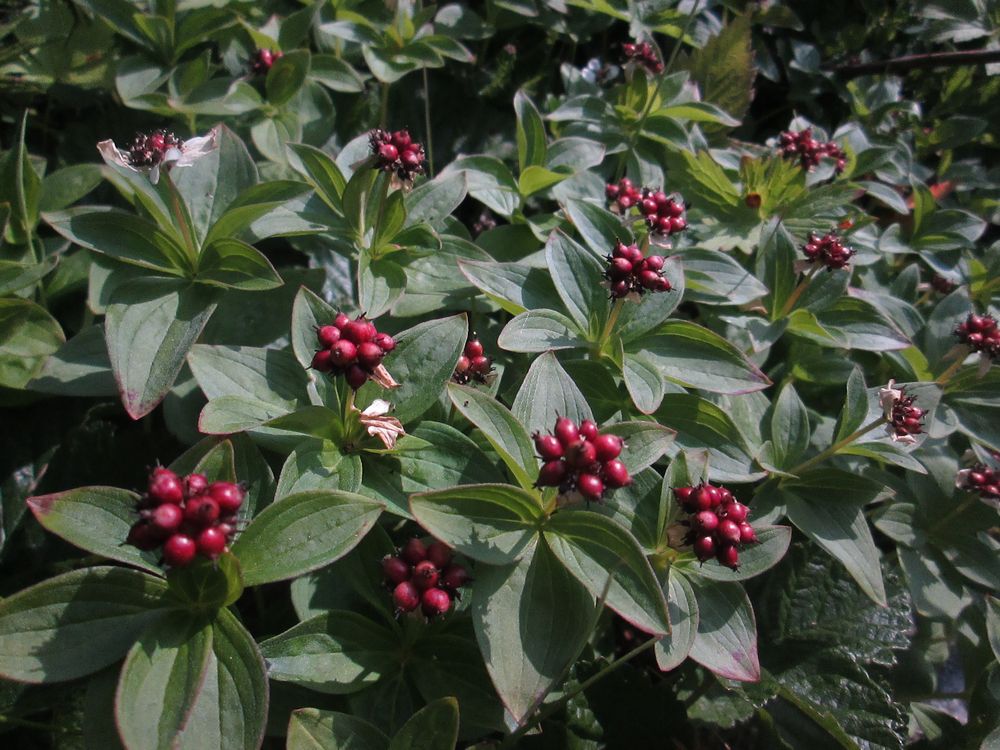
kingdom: Plantae
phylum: Tracheophyta
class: Magnoliopsida
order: Cornales
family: Cornaceae
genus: Cornus
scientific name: Cornus suecica
